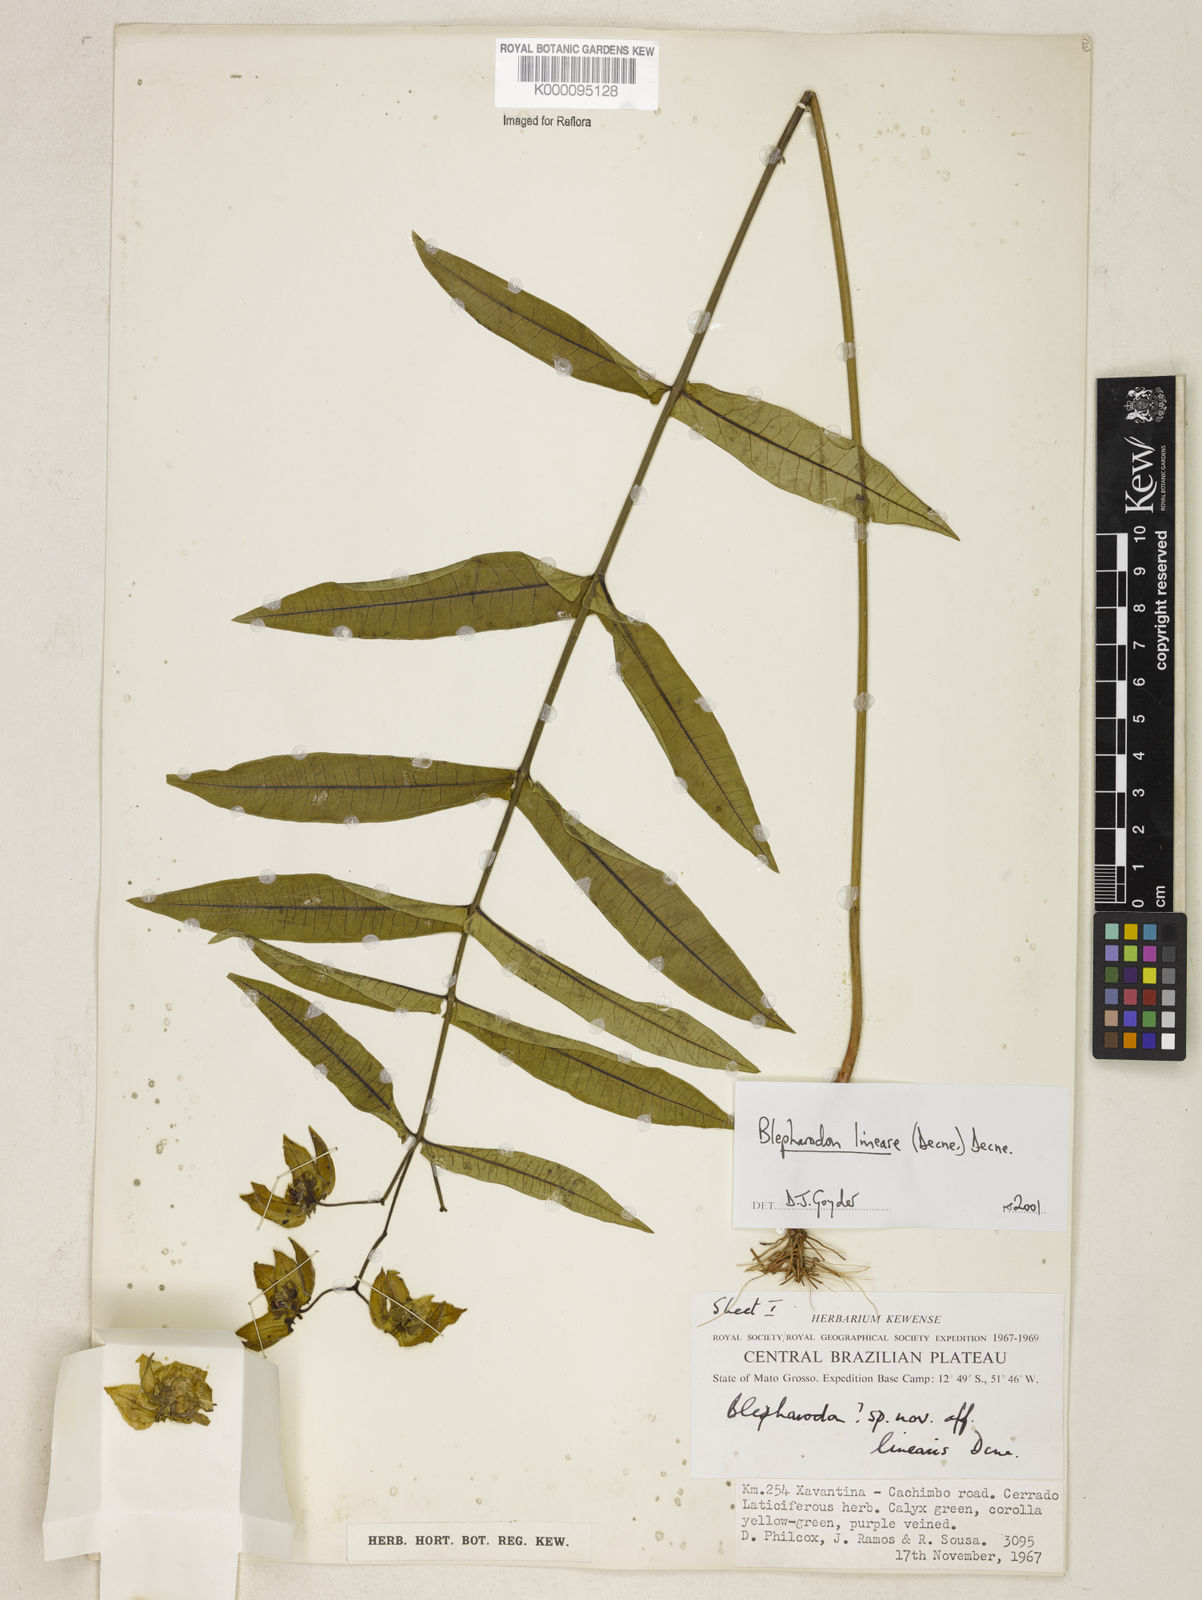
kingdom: Plantae
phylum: Tracheophyta
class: Magnoliopsida
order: Gentianales
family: Apocynaceae
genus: Blepharodon
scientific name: Blepharodon lineare
